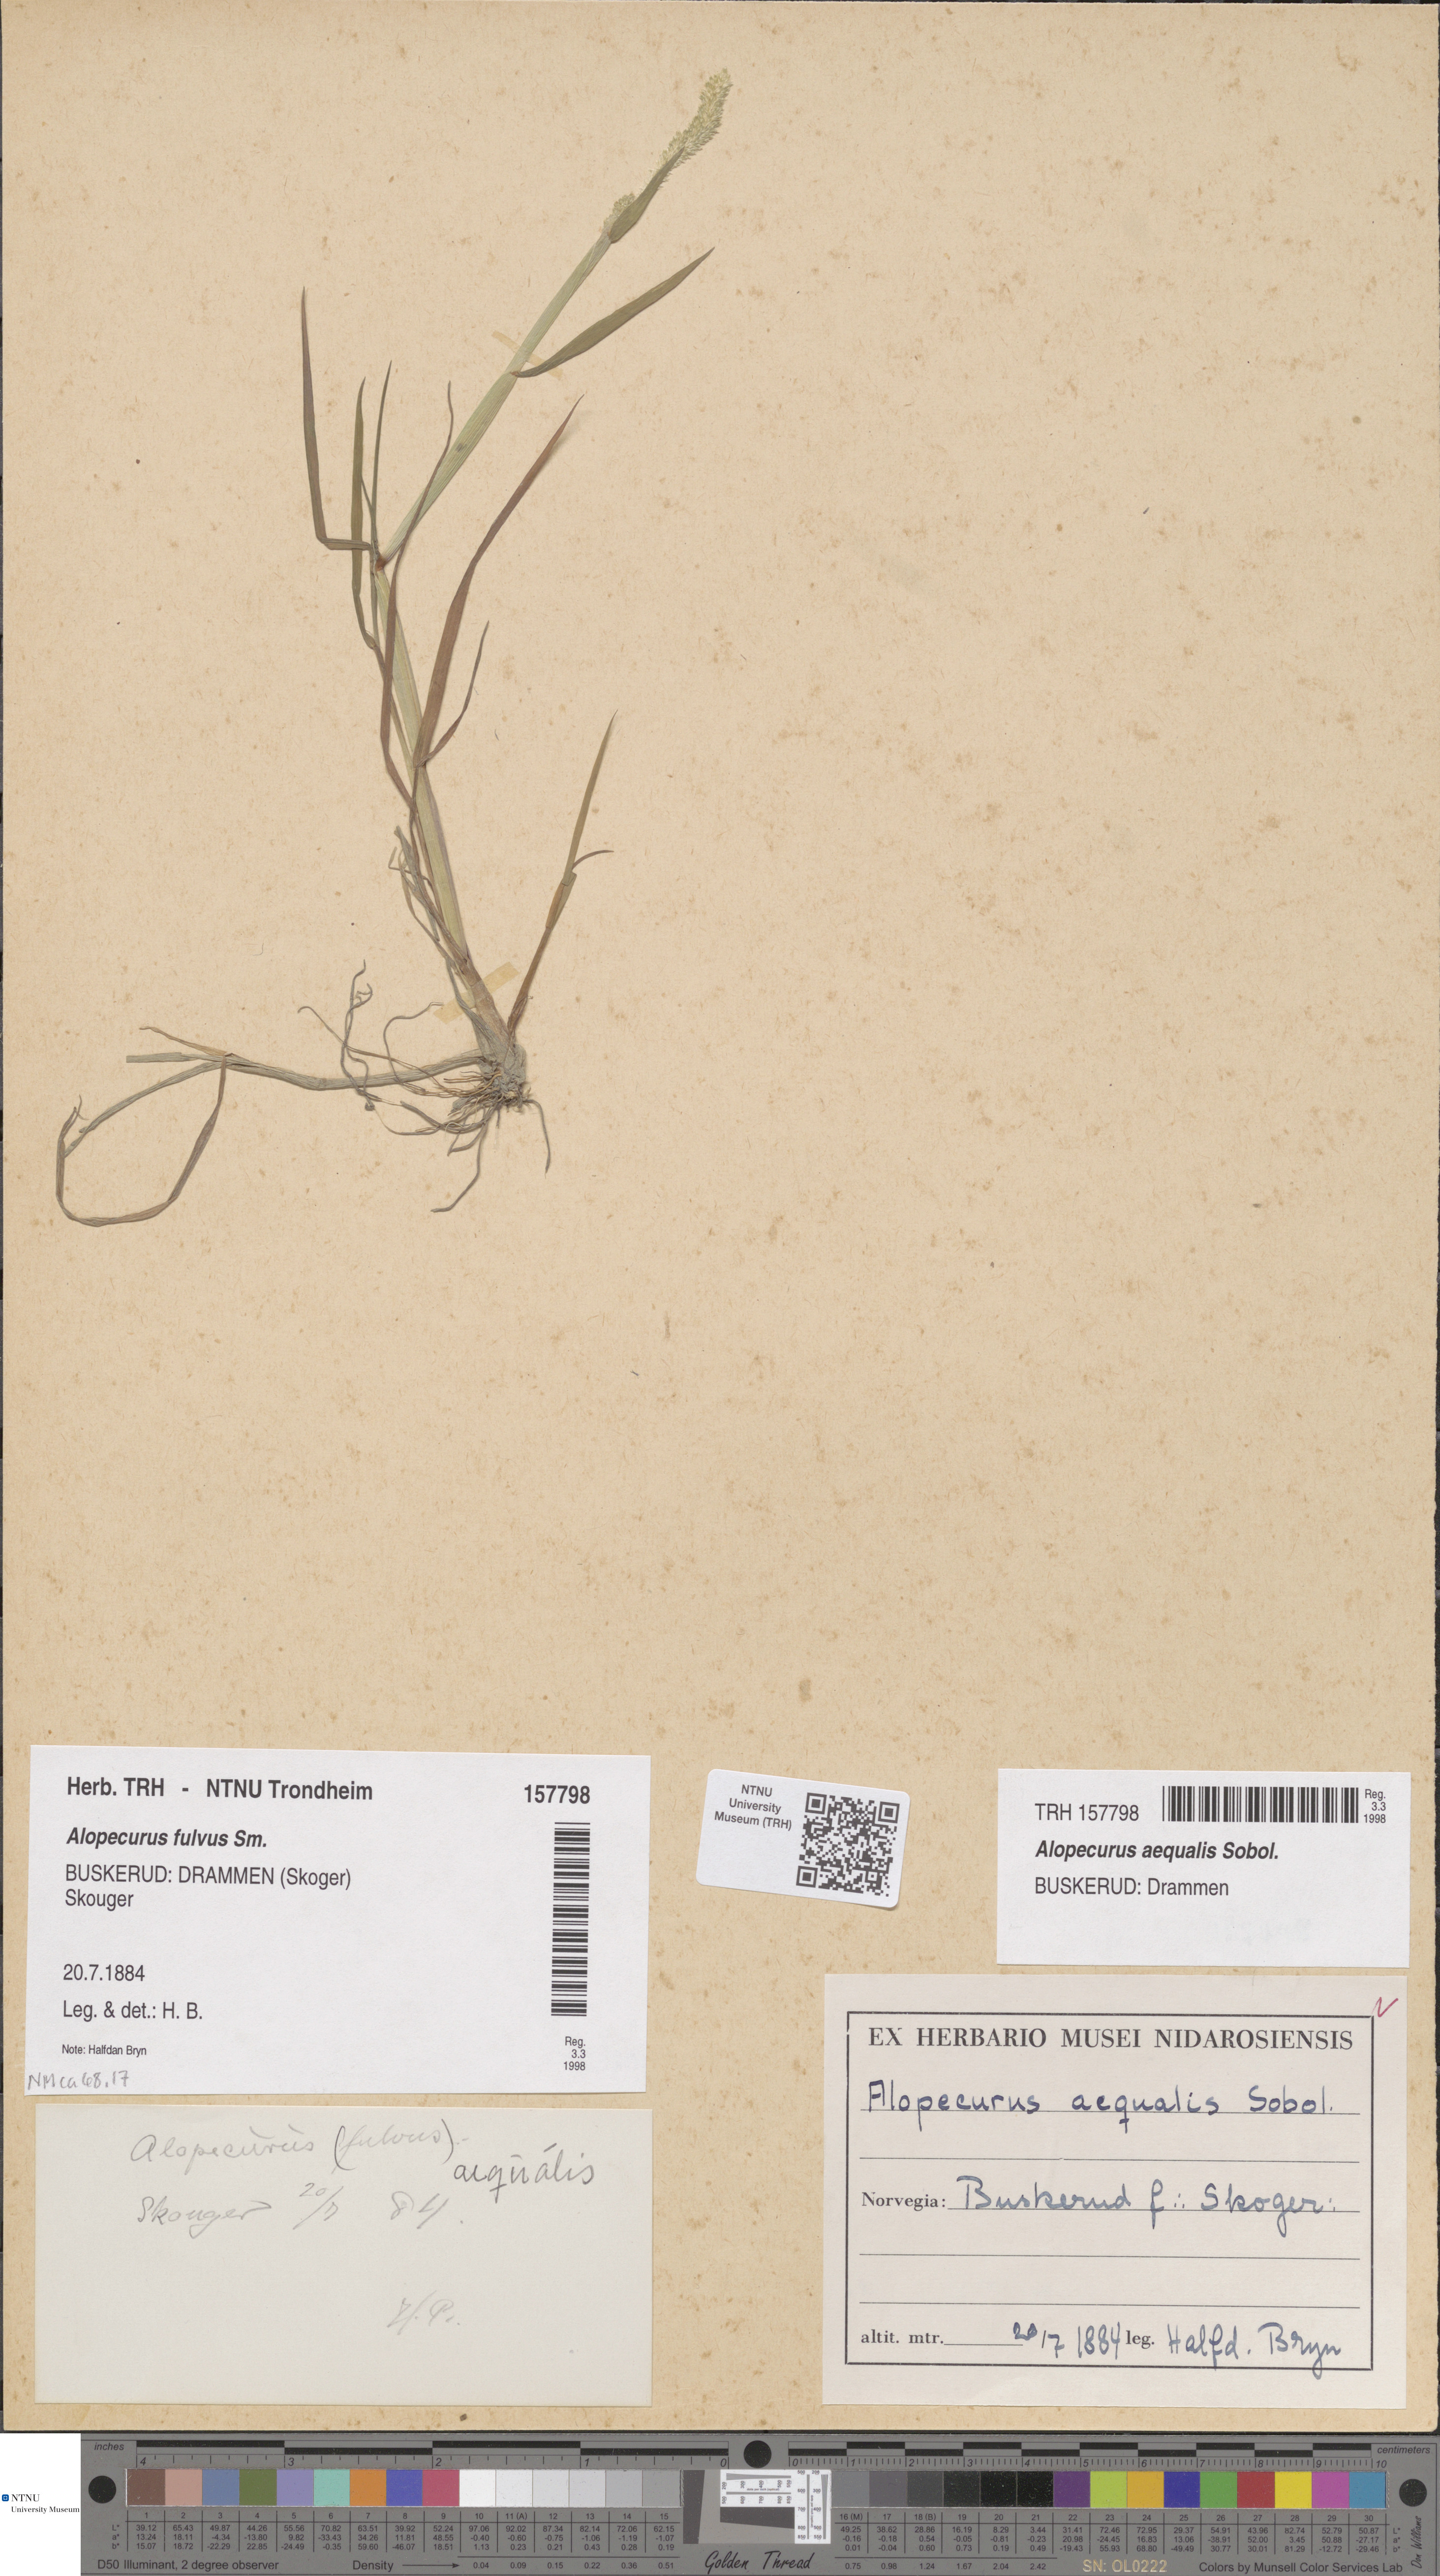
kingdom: Plantae
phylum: Tracheophyta
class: Liliopsida
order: Poales
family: Poaceae
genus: Alopecurus
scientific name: Alopecurus aequalis
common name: Orange foxtail
